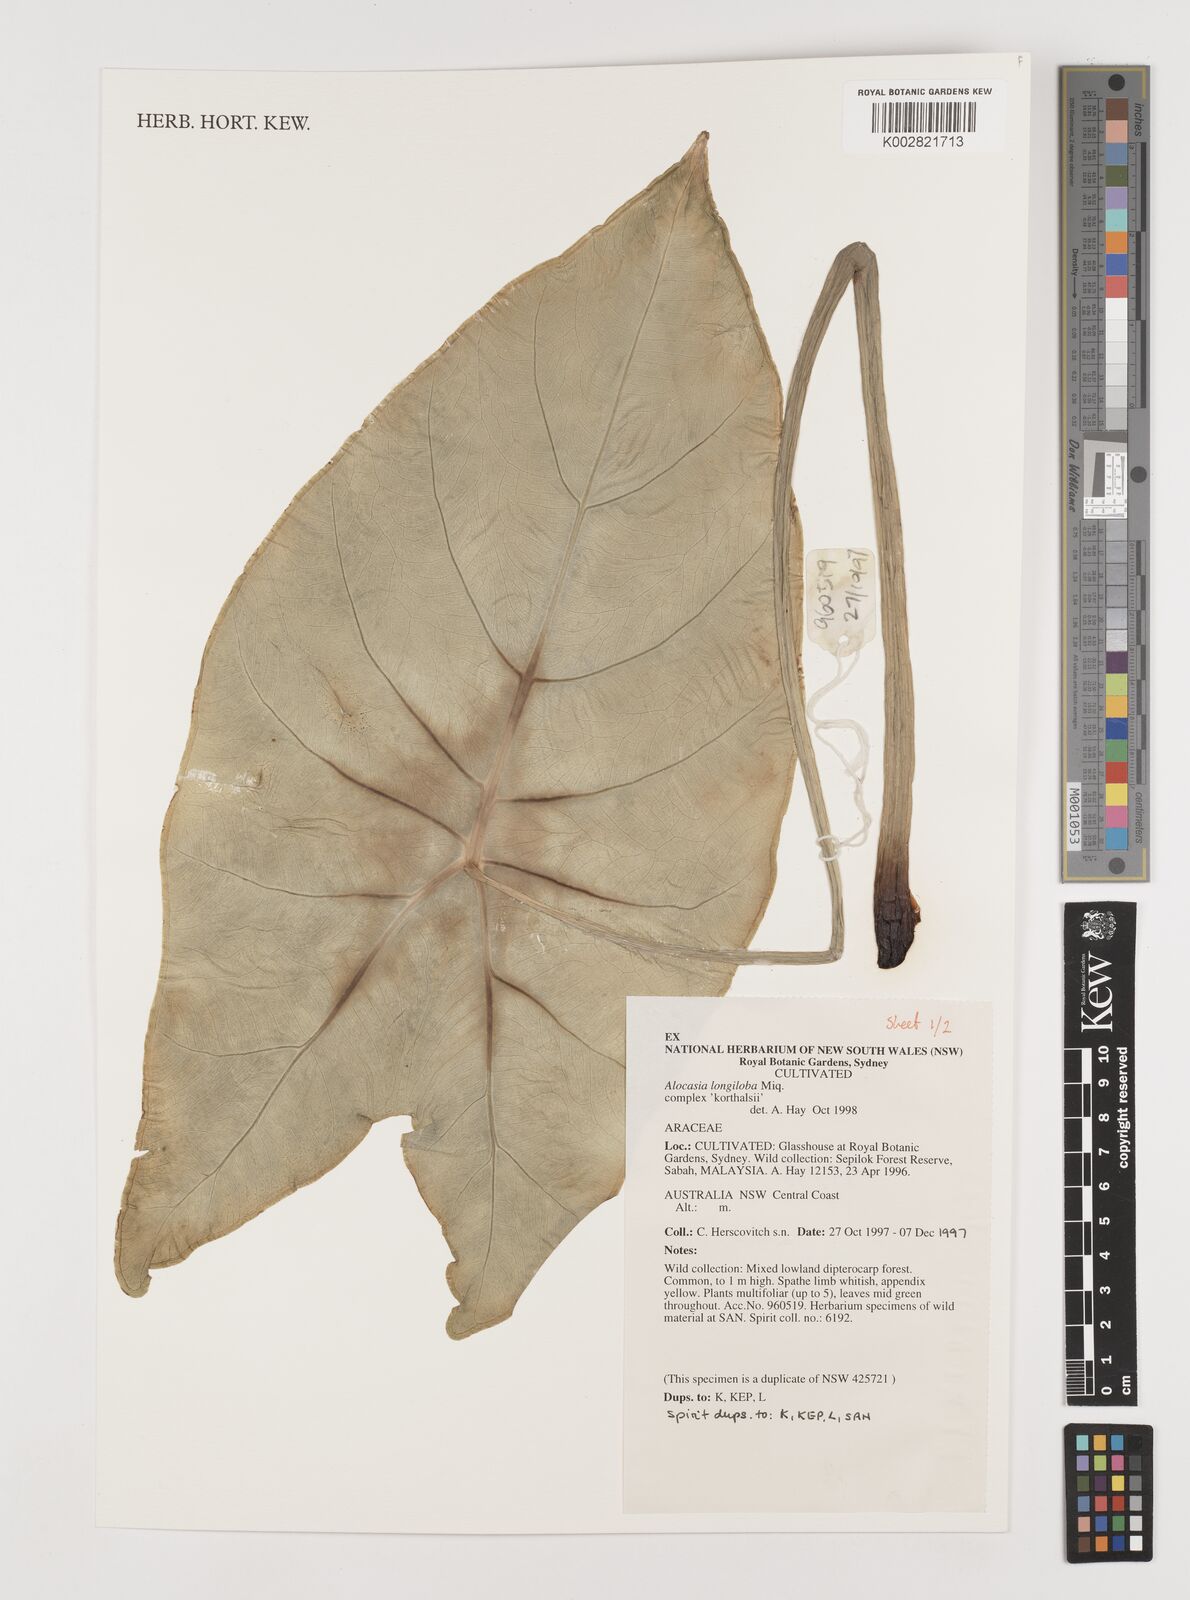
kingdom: Plantae
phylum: Tracheophyta
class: Liliopsida
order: Alismatales
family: Araceae
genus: Alocasia
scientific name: Alocasia longiloba
